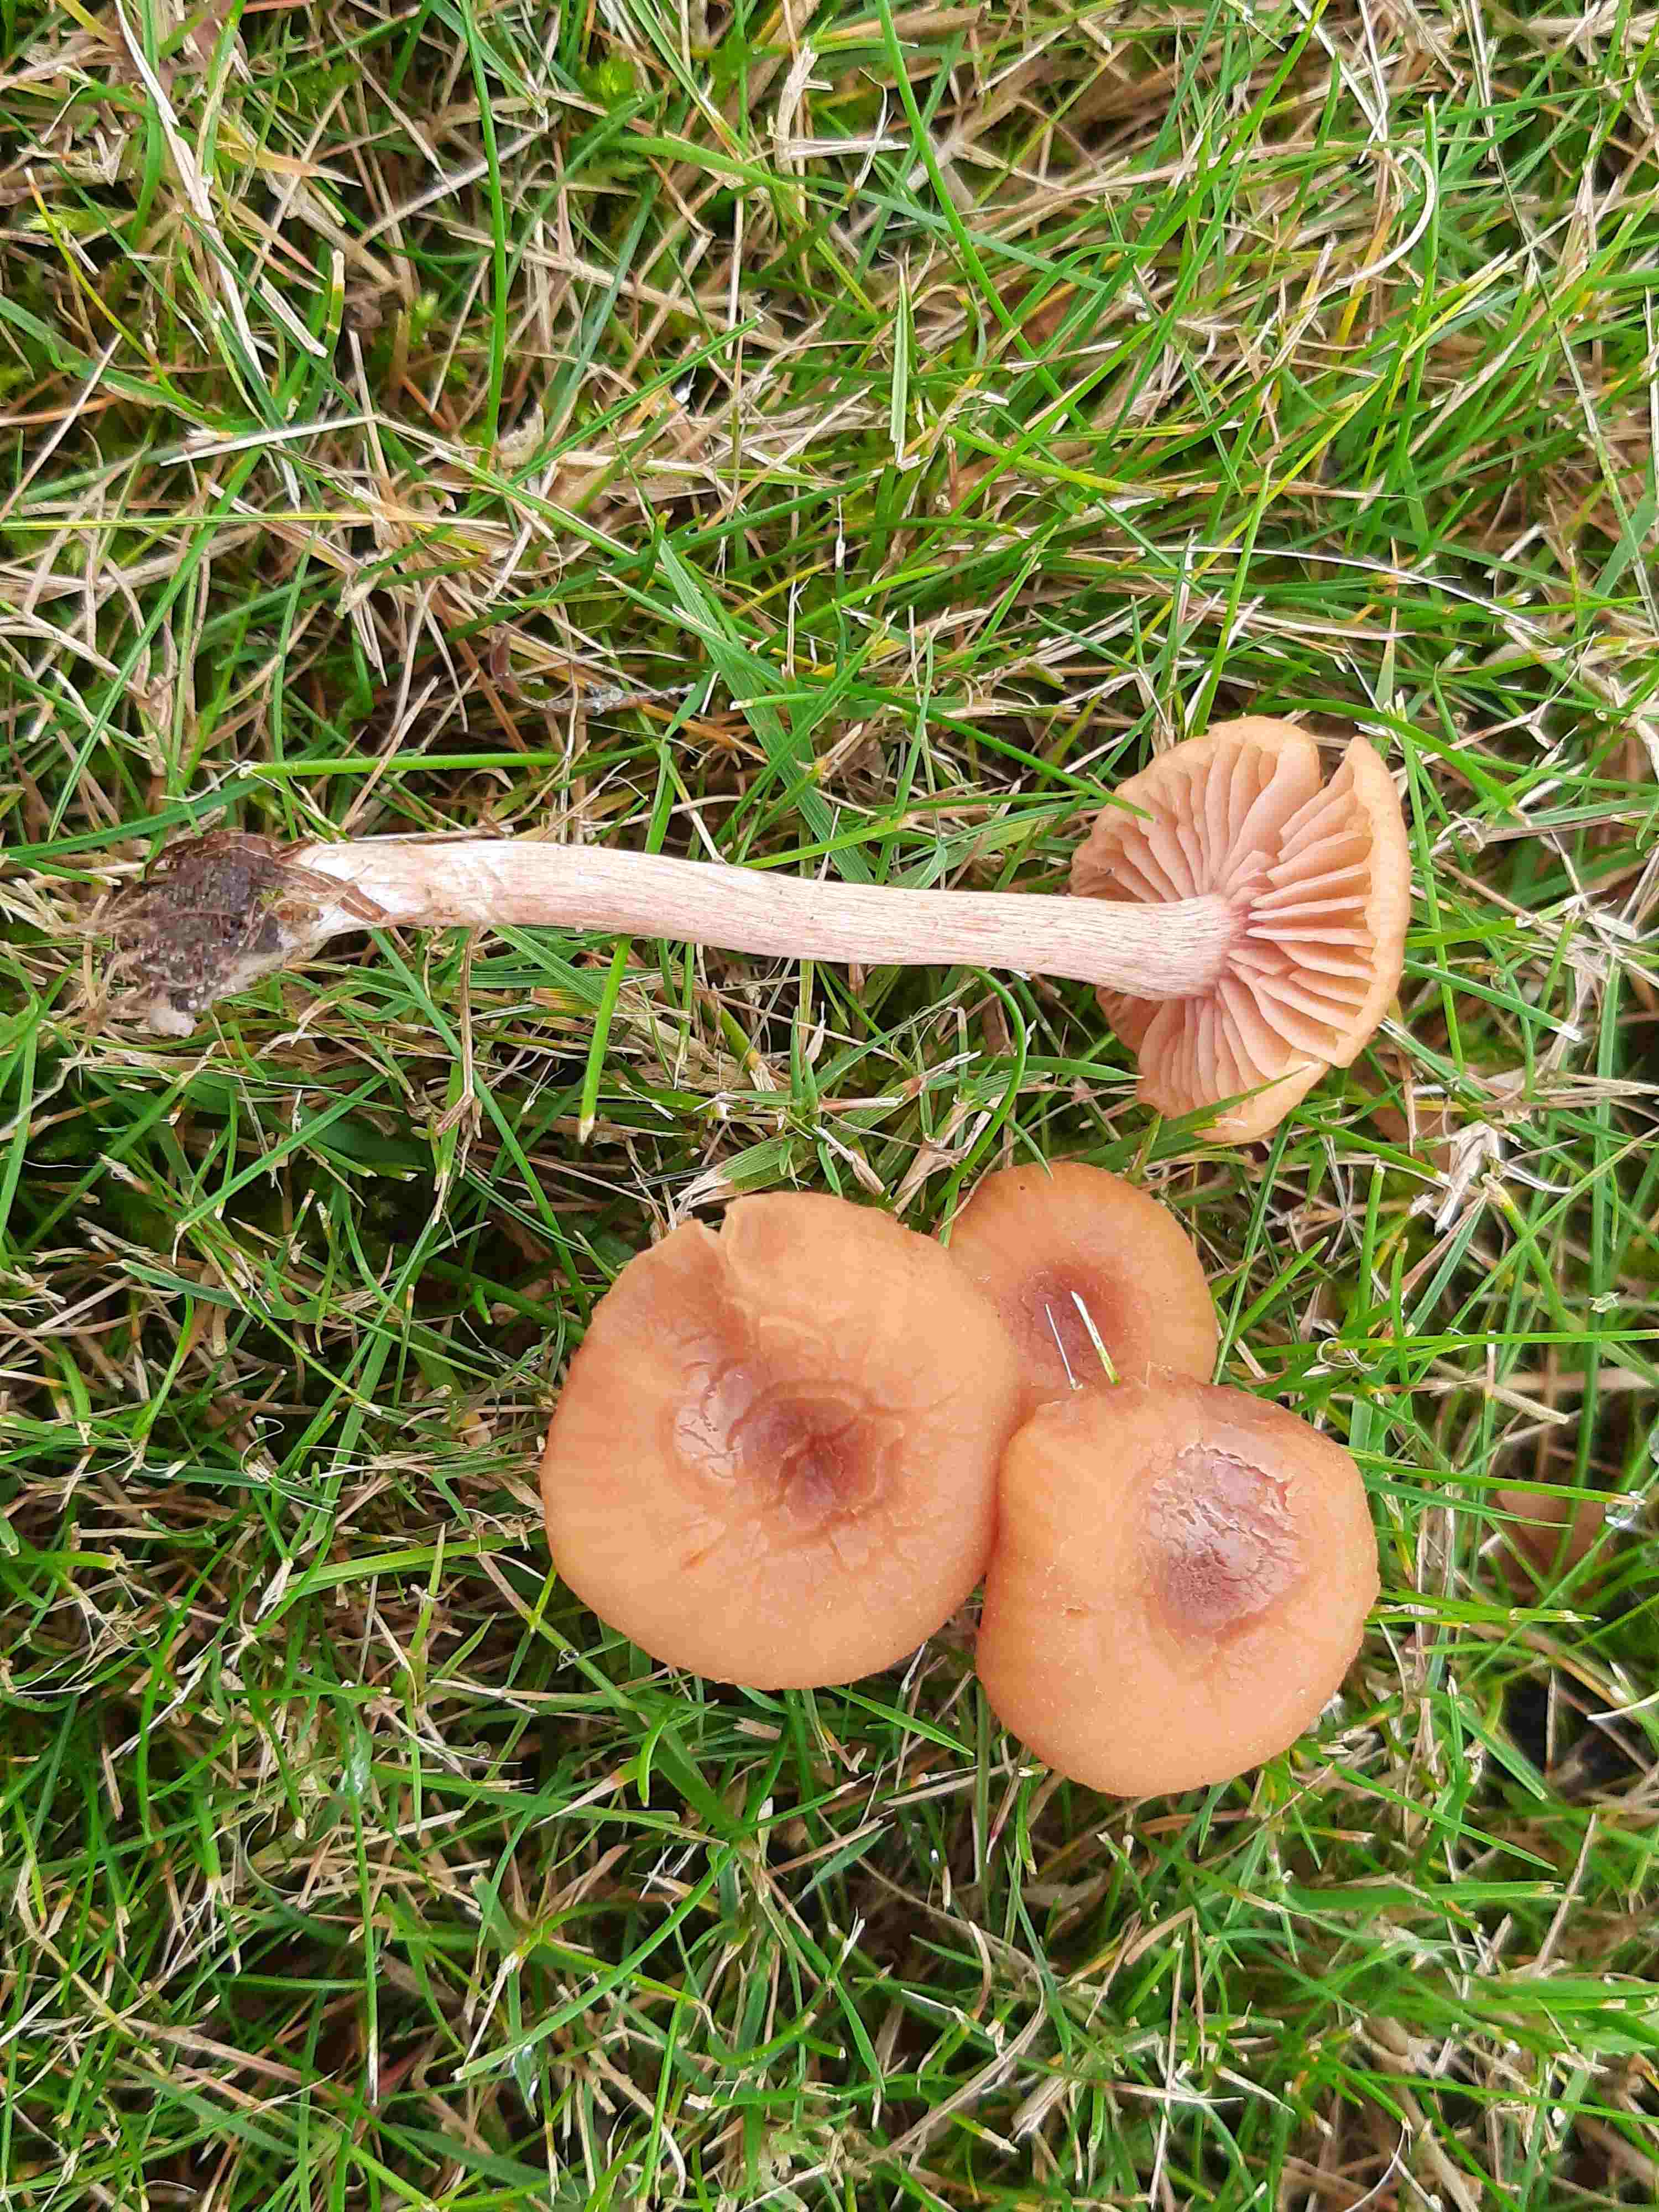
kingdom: Fungi
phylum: Basidiomycota
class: Agaricomycetes
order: Agaricales
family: Hydnangiaceae
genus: Laccaria
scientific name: Laccaria laccata
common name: rød ametysthat
